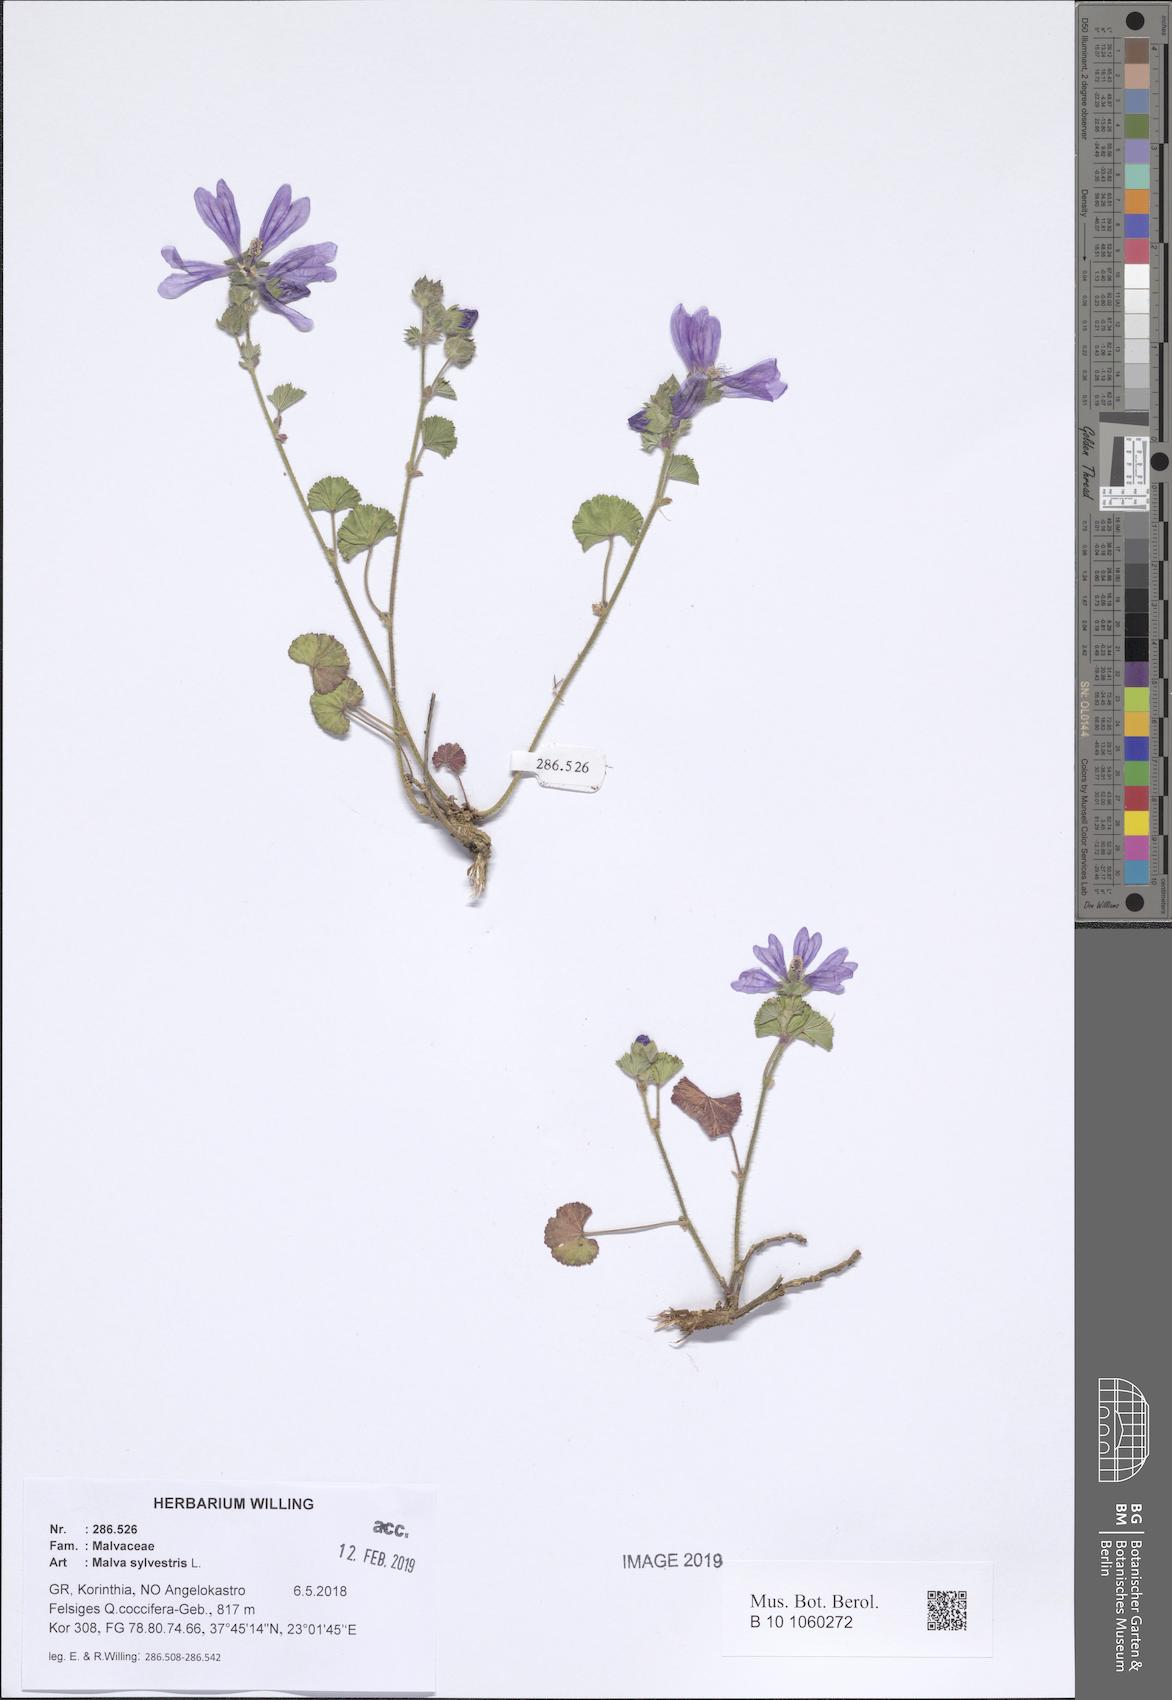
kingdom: Plantae
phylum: Tracheophyta
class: Magnoliopsida
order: Malvales
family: Malvaceae
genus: Malva
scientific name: Malva sylvestris
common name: Common mallow
